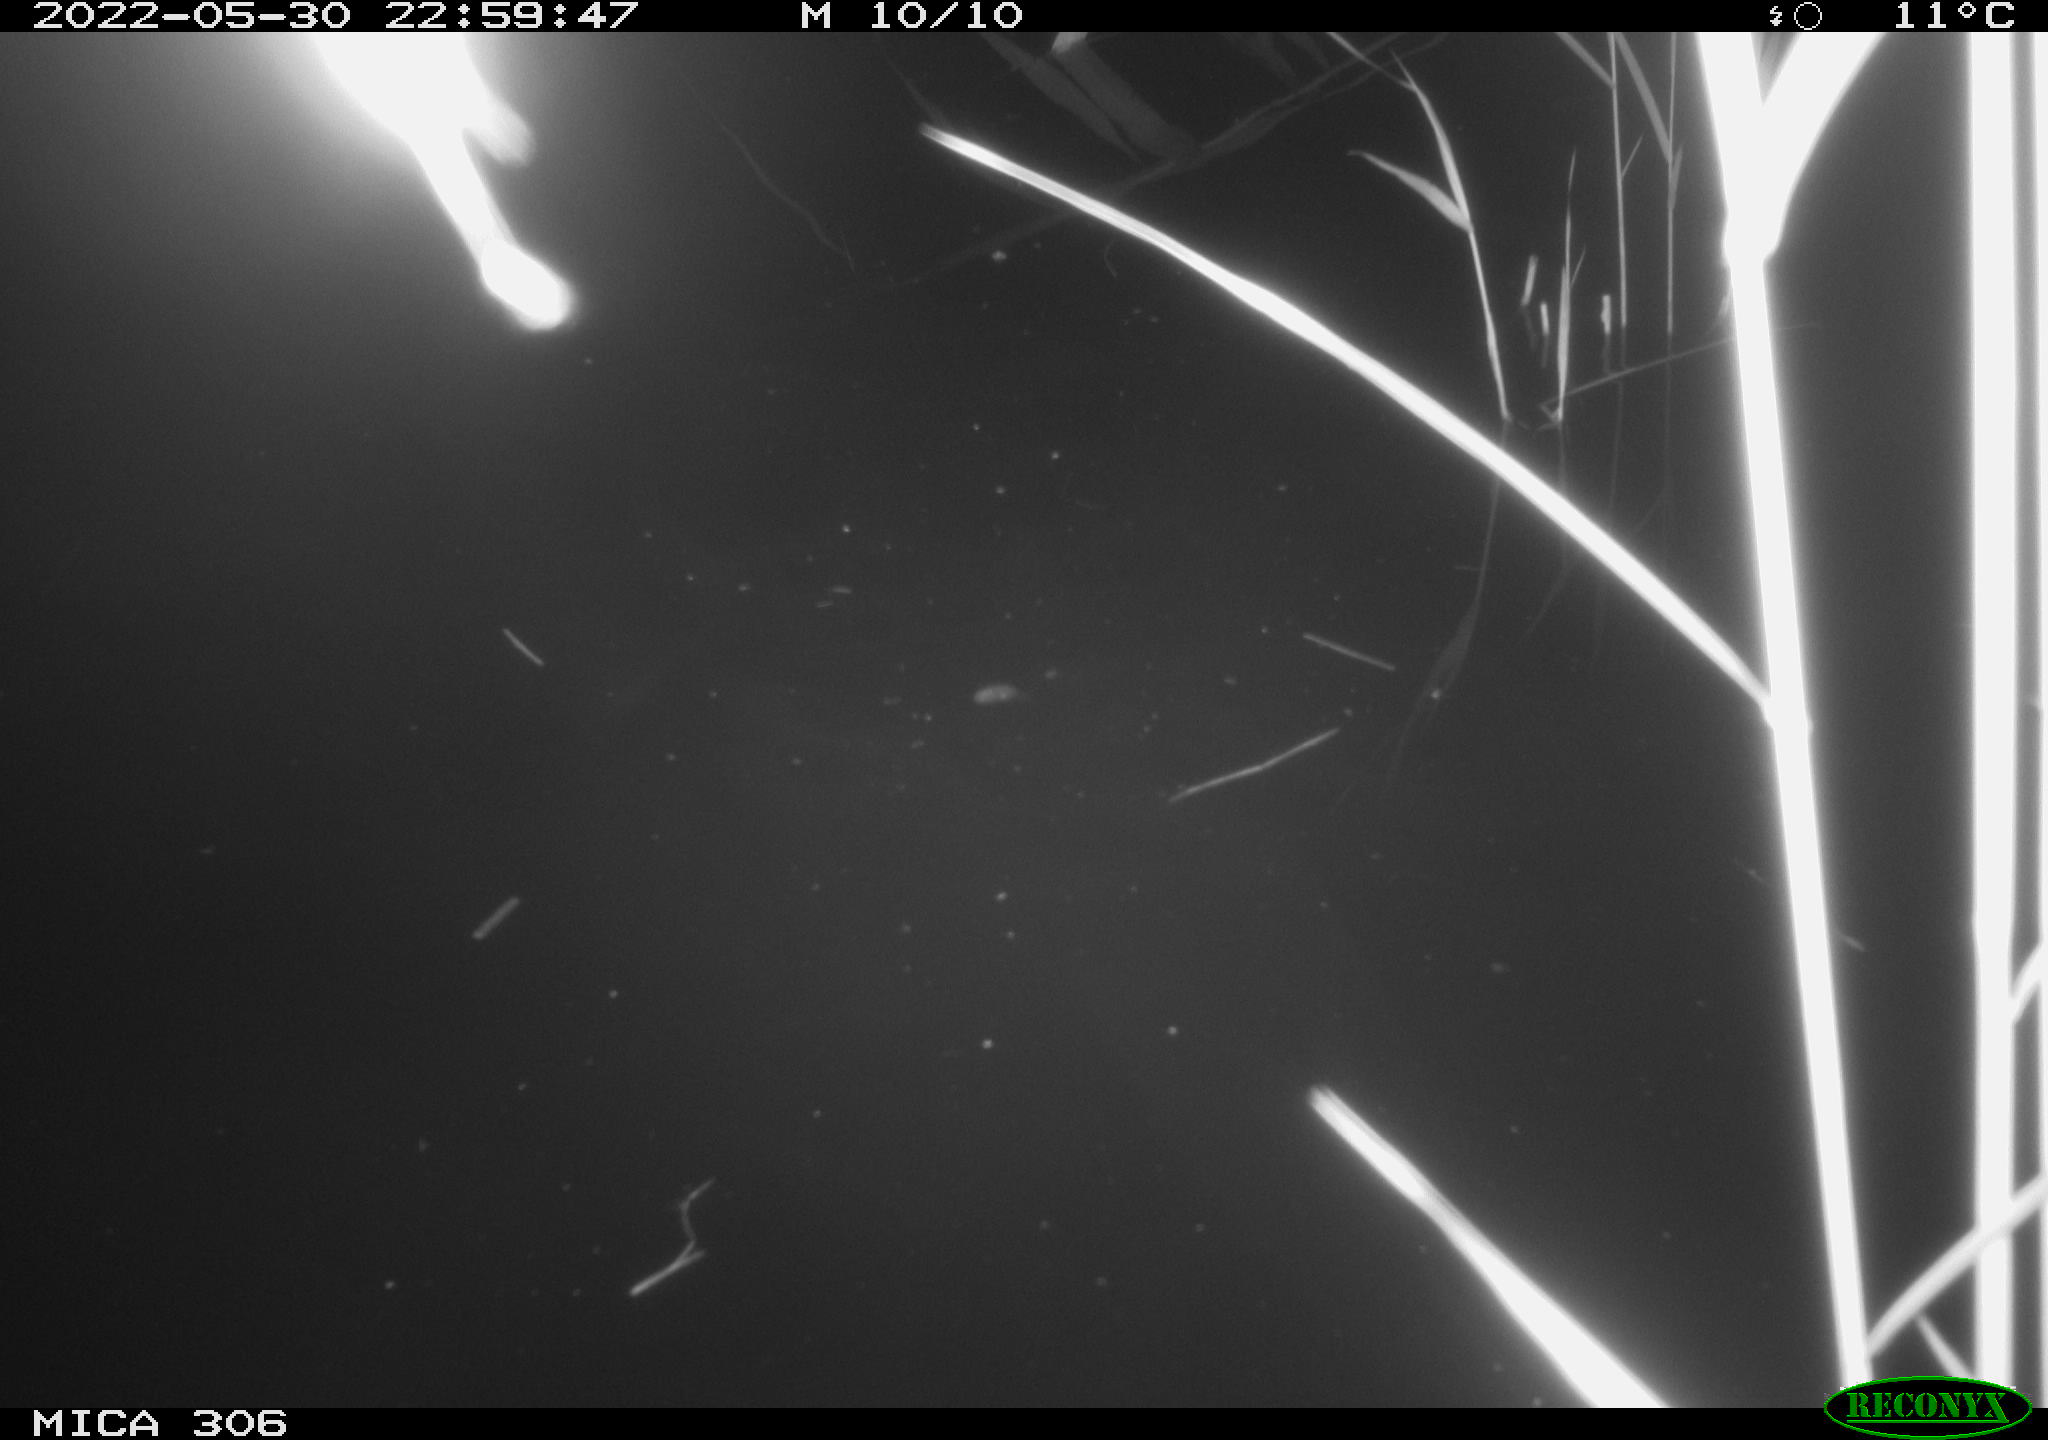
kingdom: Animalia
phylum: Chordata
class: Mammalia
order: Rodentia
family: Cricetidae
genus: Ondatra
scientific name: Ondatra zibethicus
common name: Muskrat
